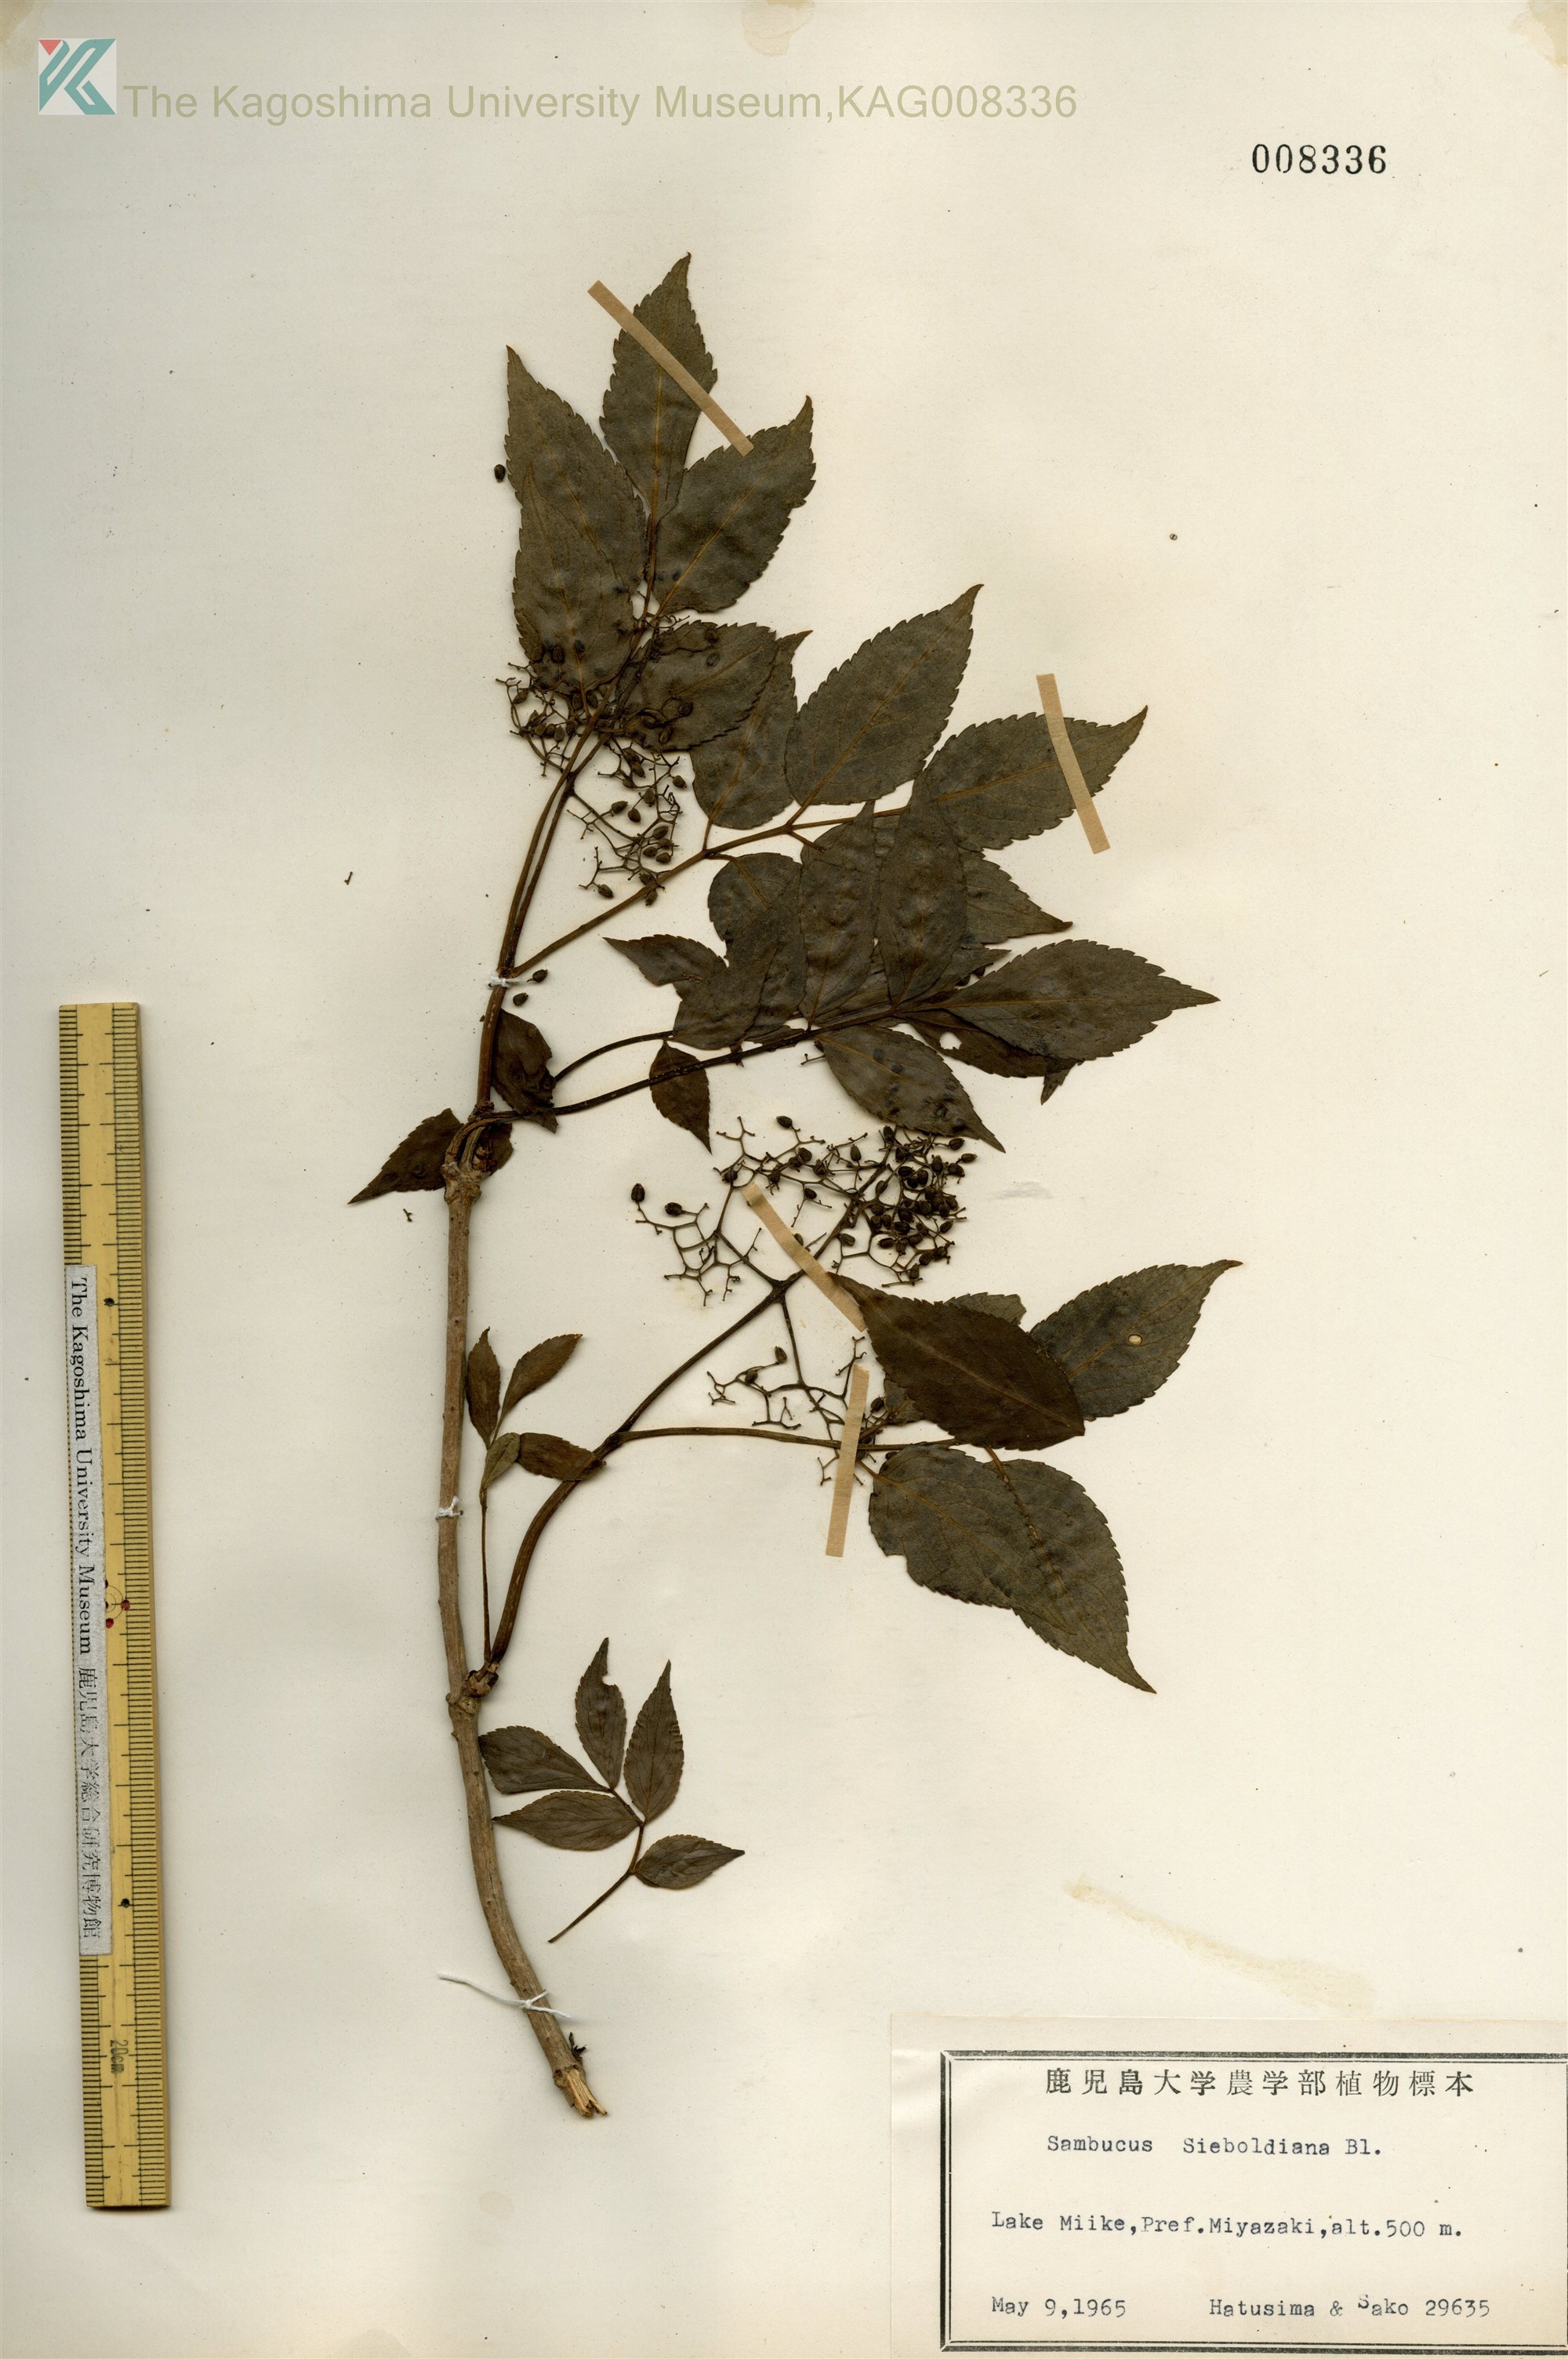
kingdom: Plantae
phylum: Tracheophyta
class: Magnoliopsida
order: Dipsacales
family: Viburnaceae
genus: Sambucus
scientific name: Sambucus sieboldiana
